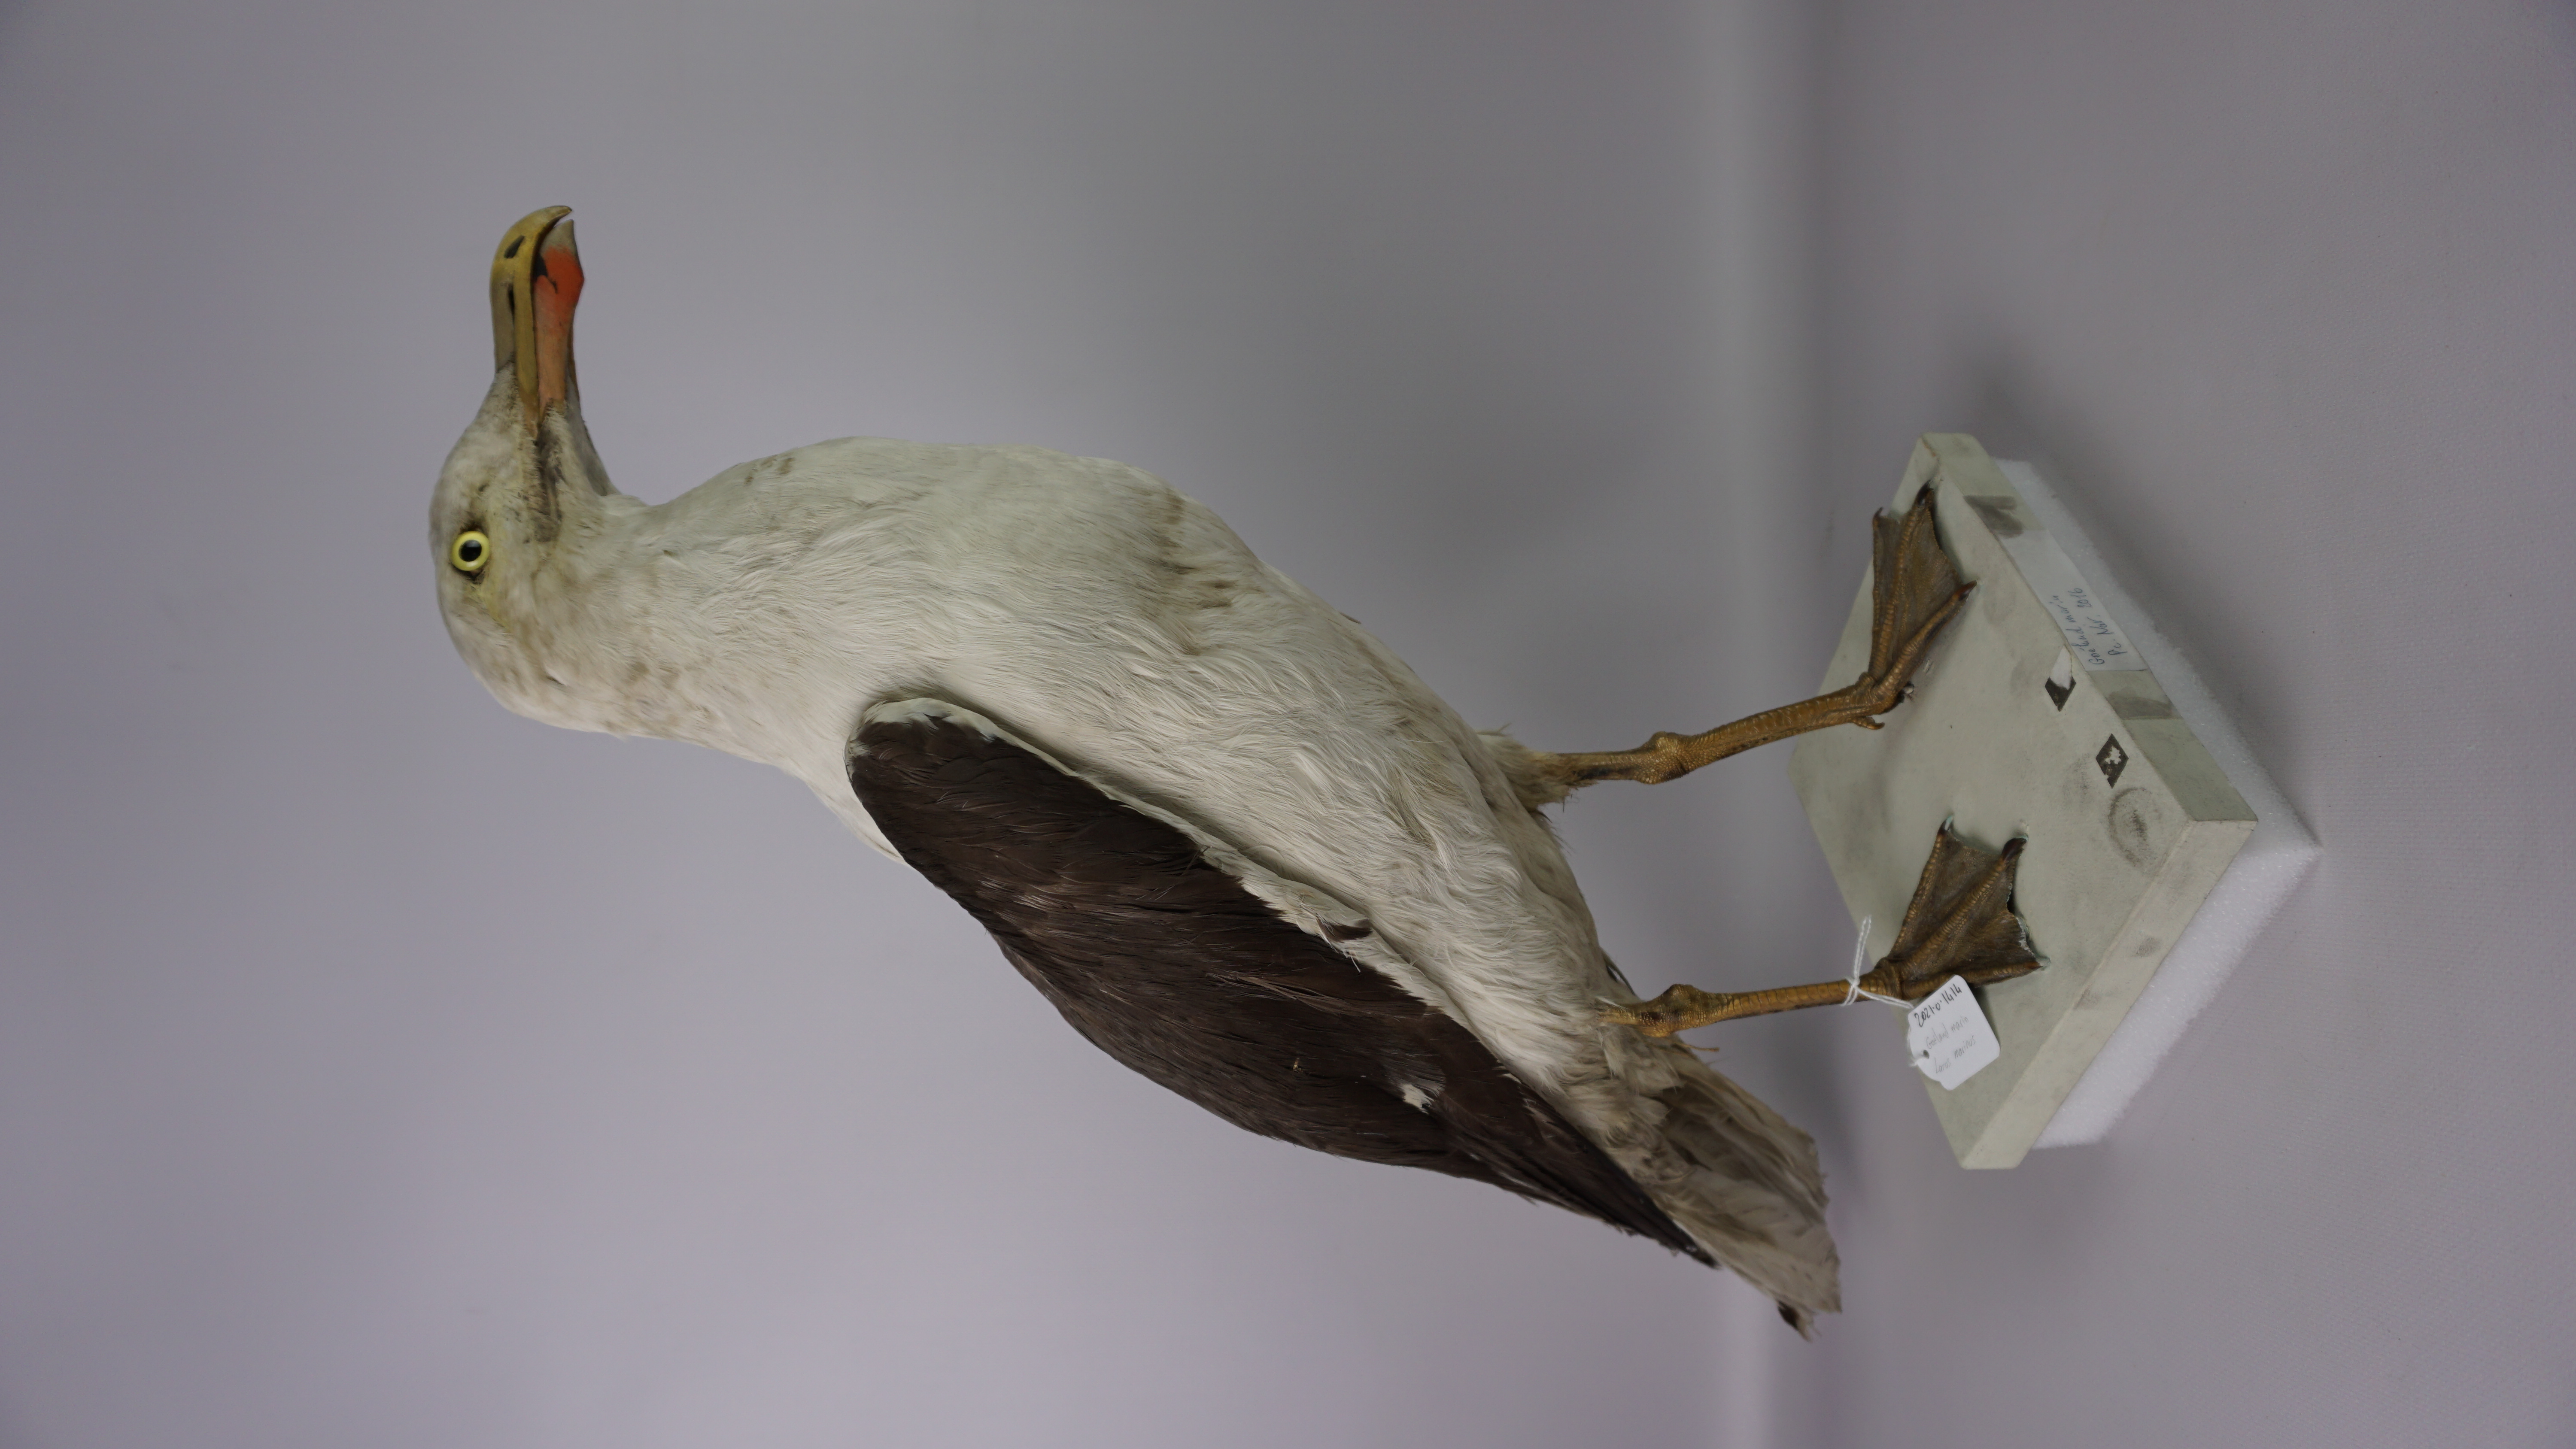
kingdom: Animalia
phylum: Chordata
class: Aves
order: Charadriiformes
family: Laridae
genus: Larus
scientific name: Larus marinus
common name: Great black-backed gull
